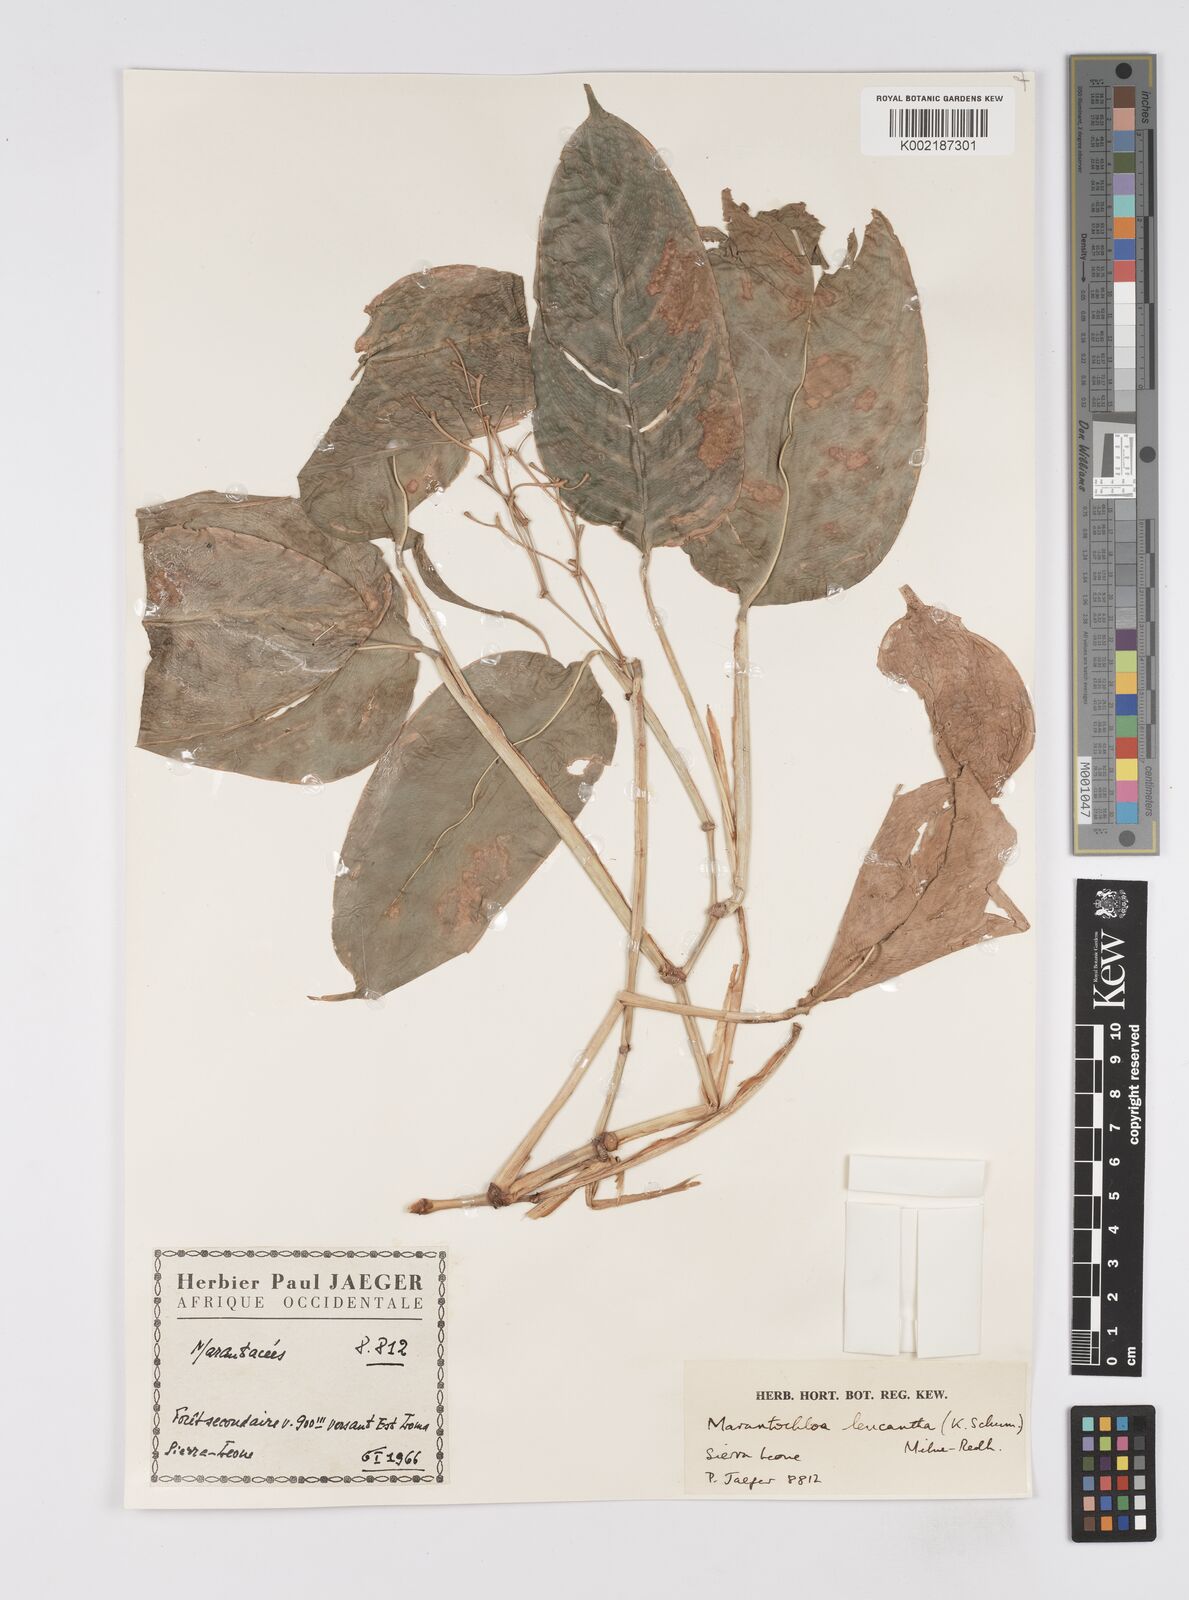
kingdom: Plantae
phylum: Tracheophyta
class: Liliopsida
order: Zingiberales
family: Marantaceae
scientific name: Marantaceae
